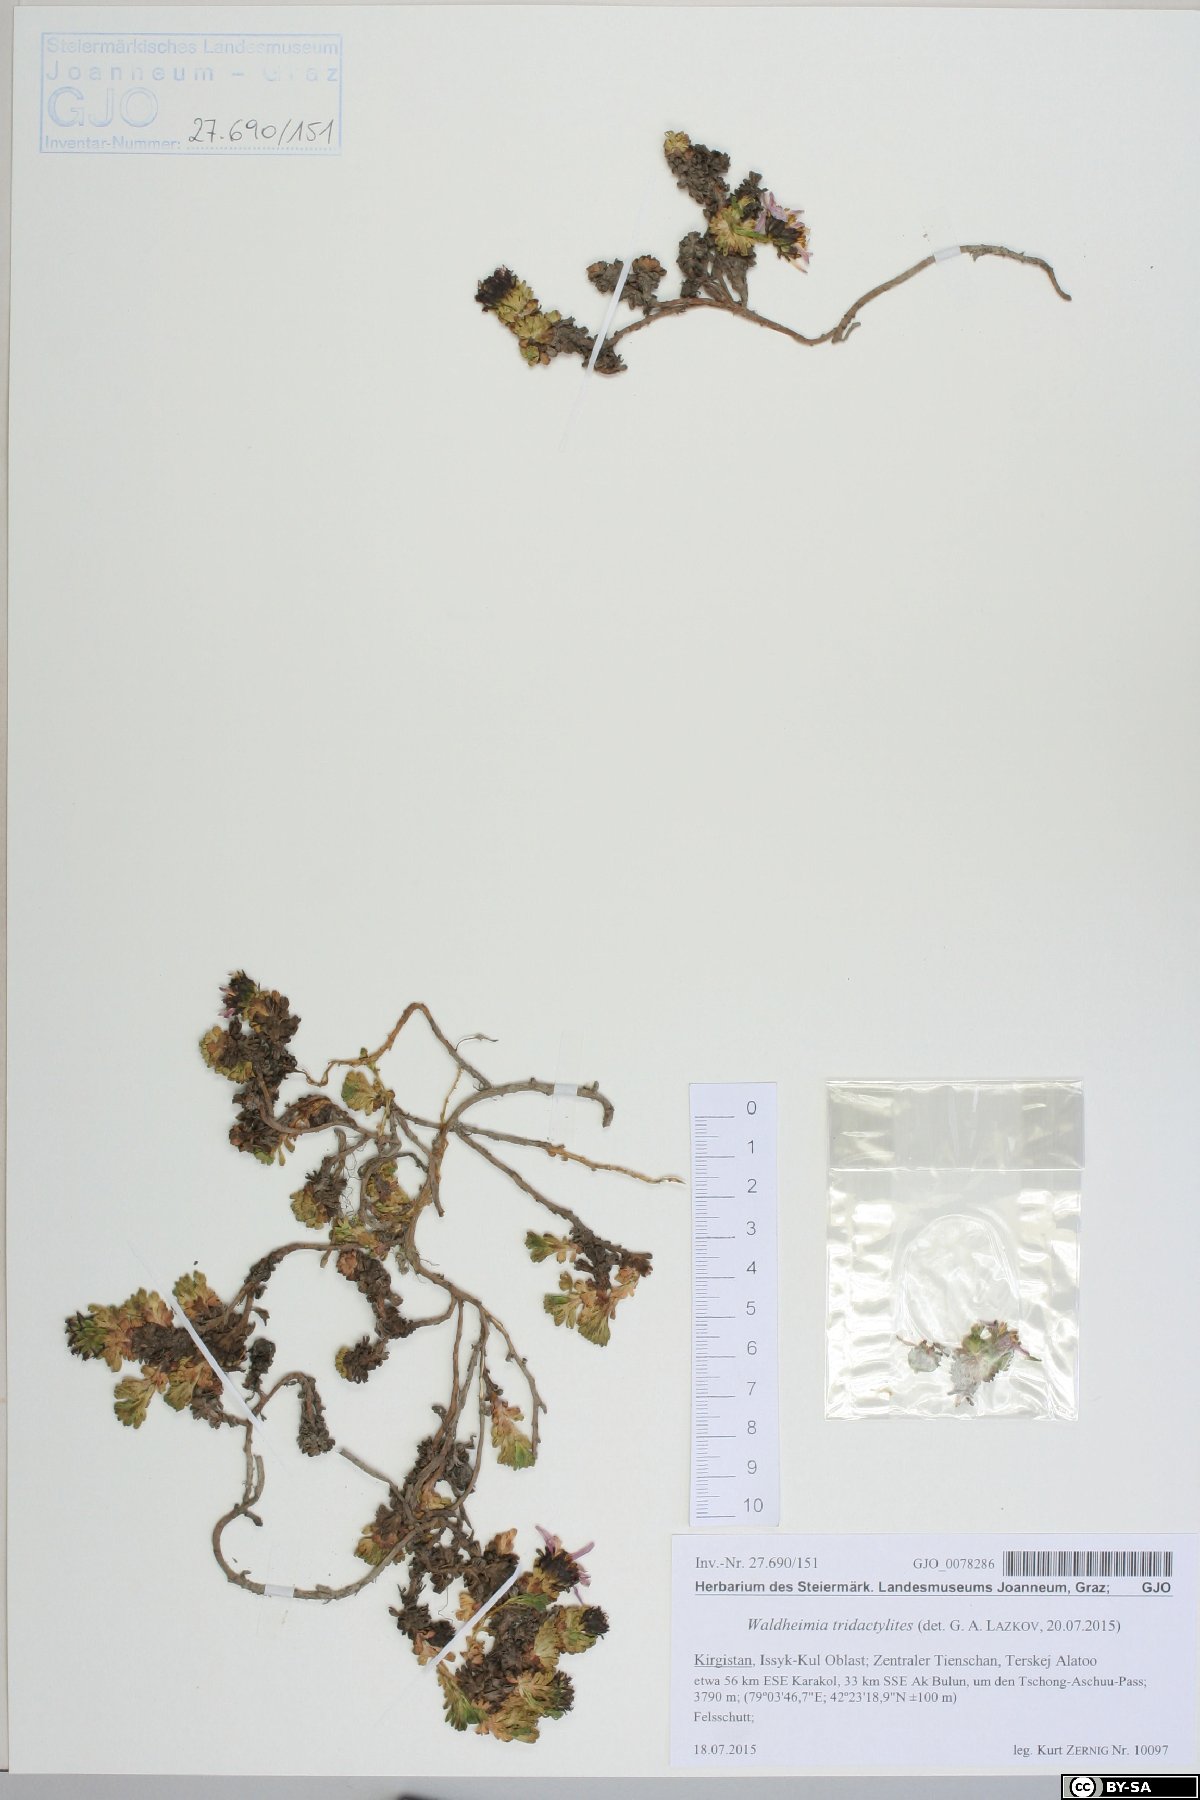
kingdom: Plantae
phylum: Tracheophyta
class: Magnoliopsida
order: Asterales
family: Asteraceae
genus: Allardia
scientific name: Allardia tridactylites
